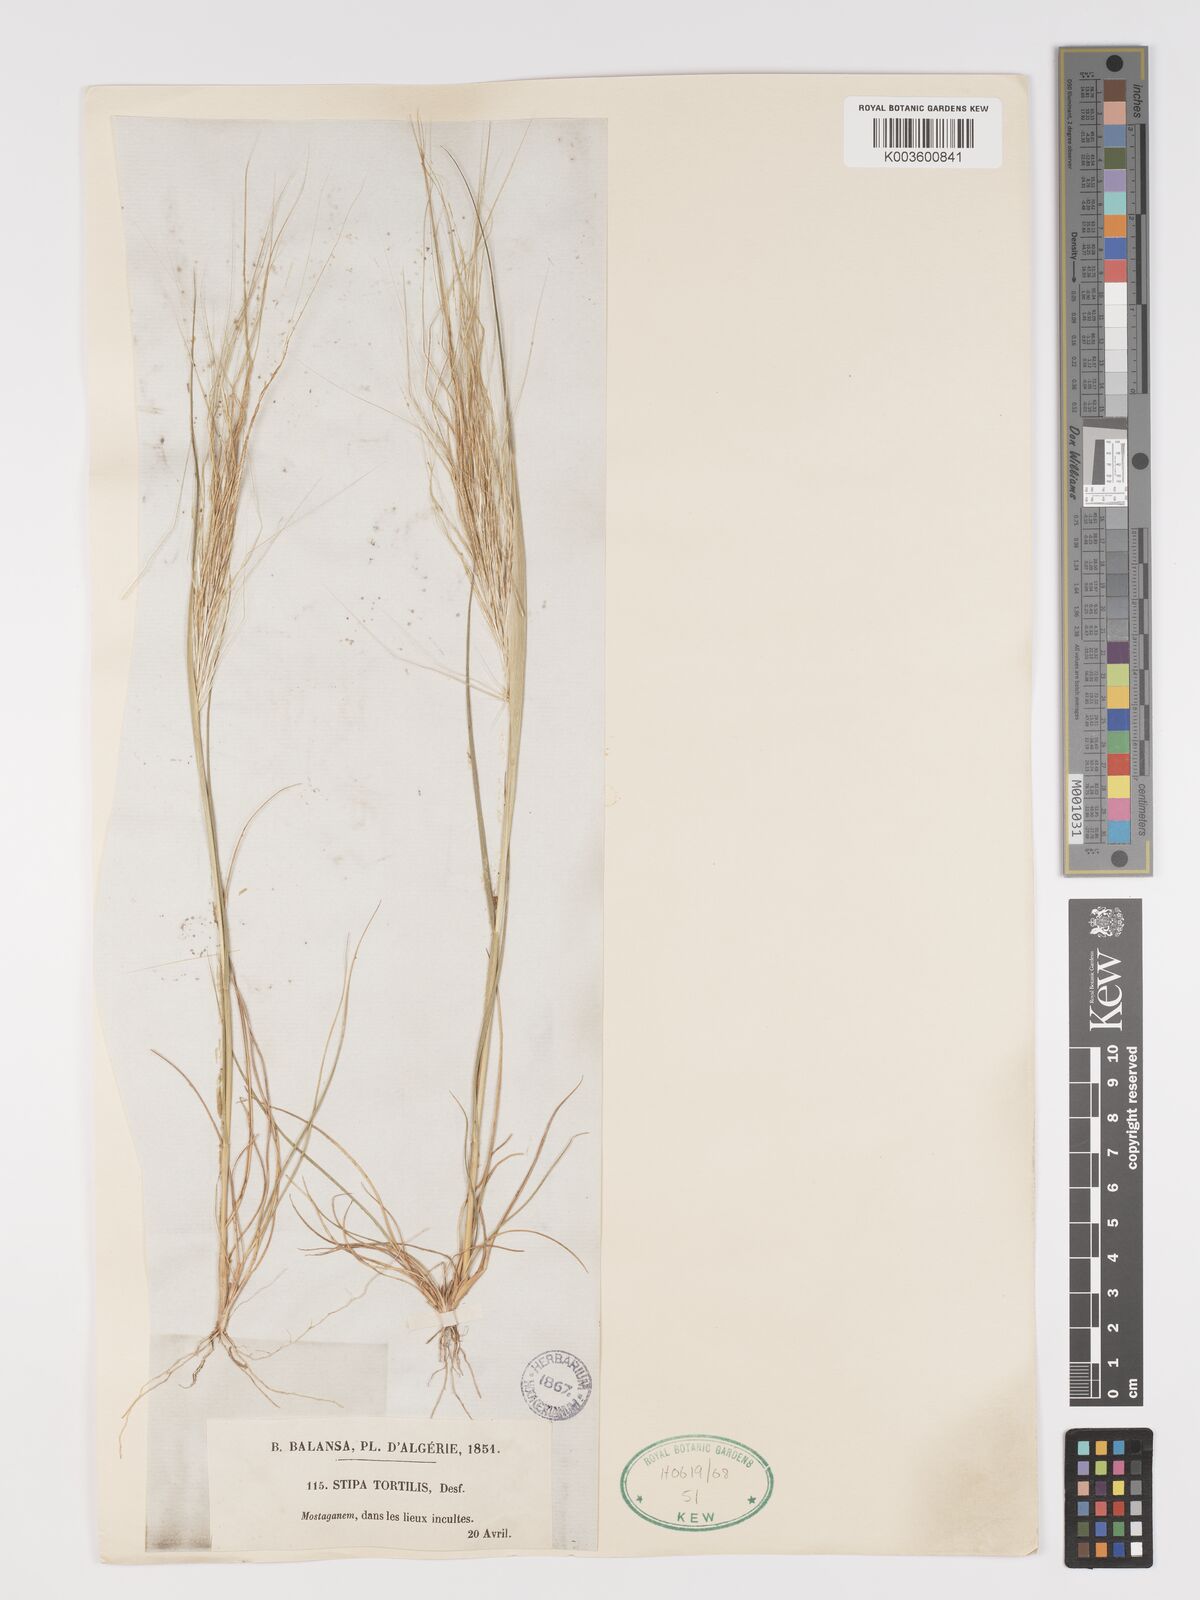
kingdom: Plantae
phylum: Tracheophyta
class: Liliopsida
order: Poales
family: Poaceae
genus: Stipellula
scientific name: Stipellula capensis
